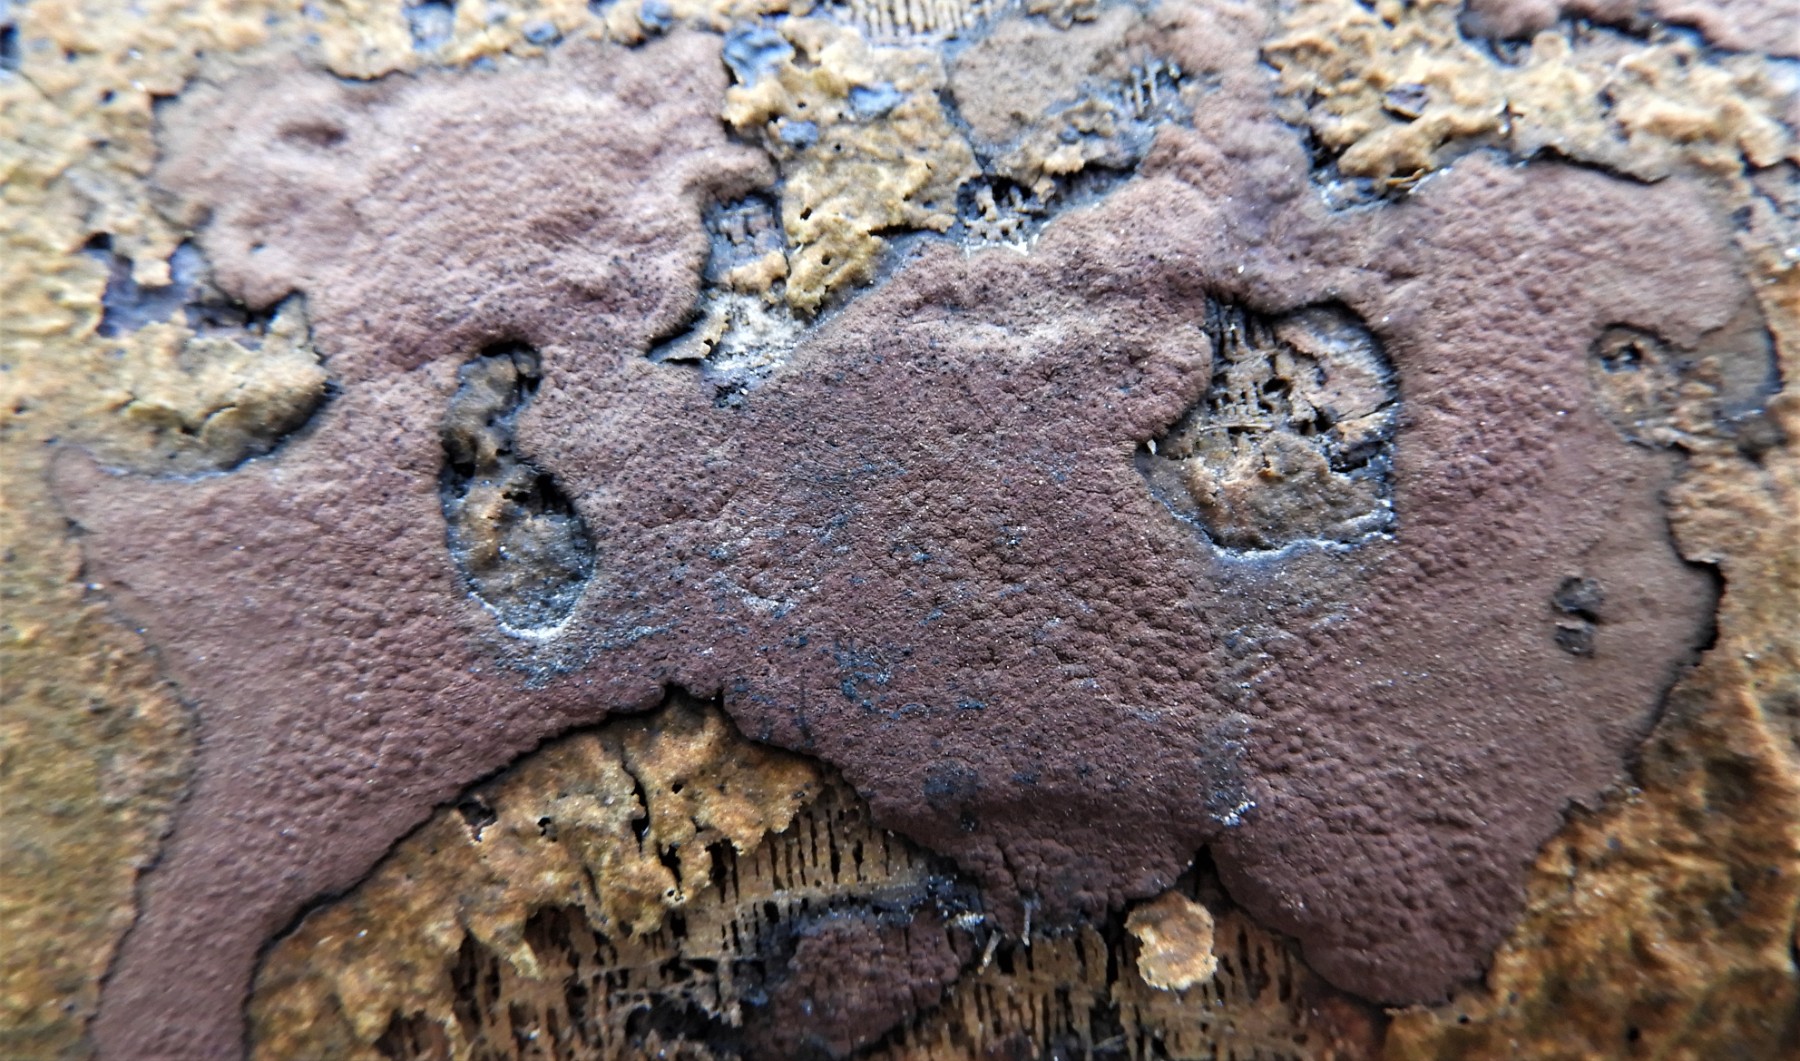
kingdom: Fungi
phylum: Ascomycota
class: Sordariomycetes
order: Xylariales
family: Hypoxylaceae
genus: Hypoxylon
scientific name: Hypoxylon petriniae
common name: nedsænket kulbær
